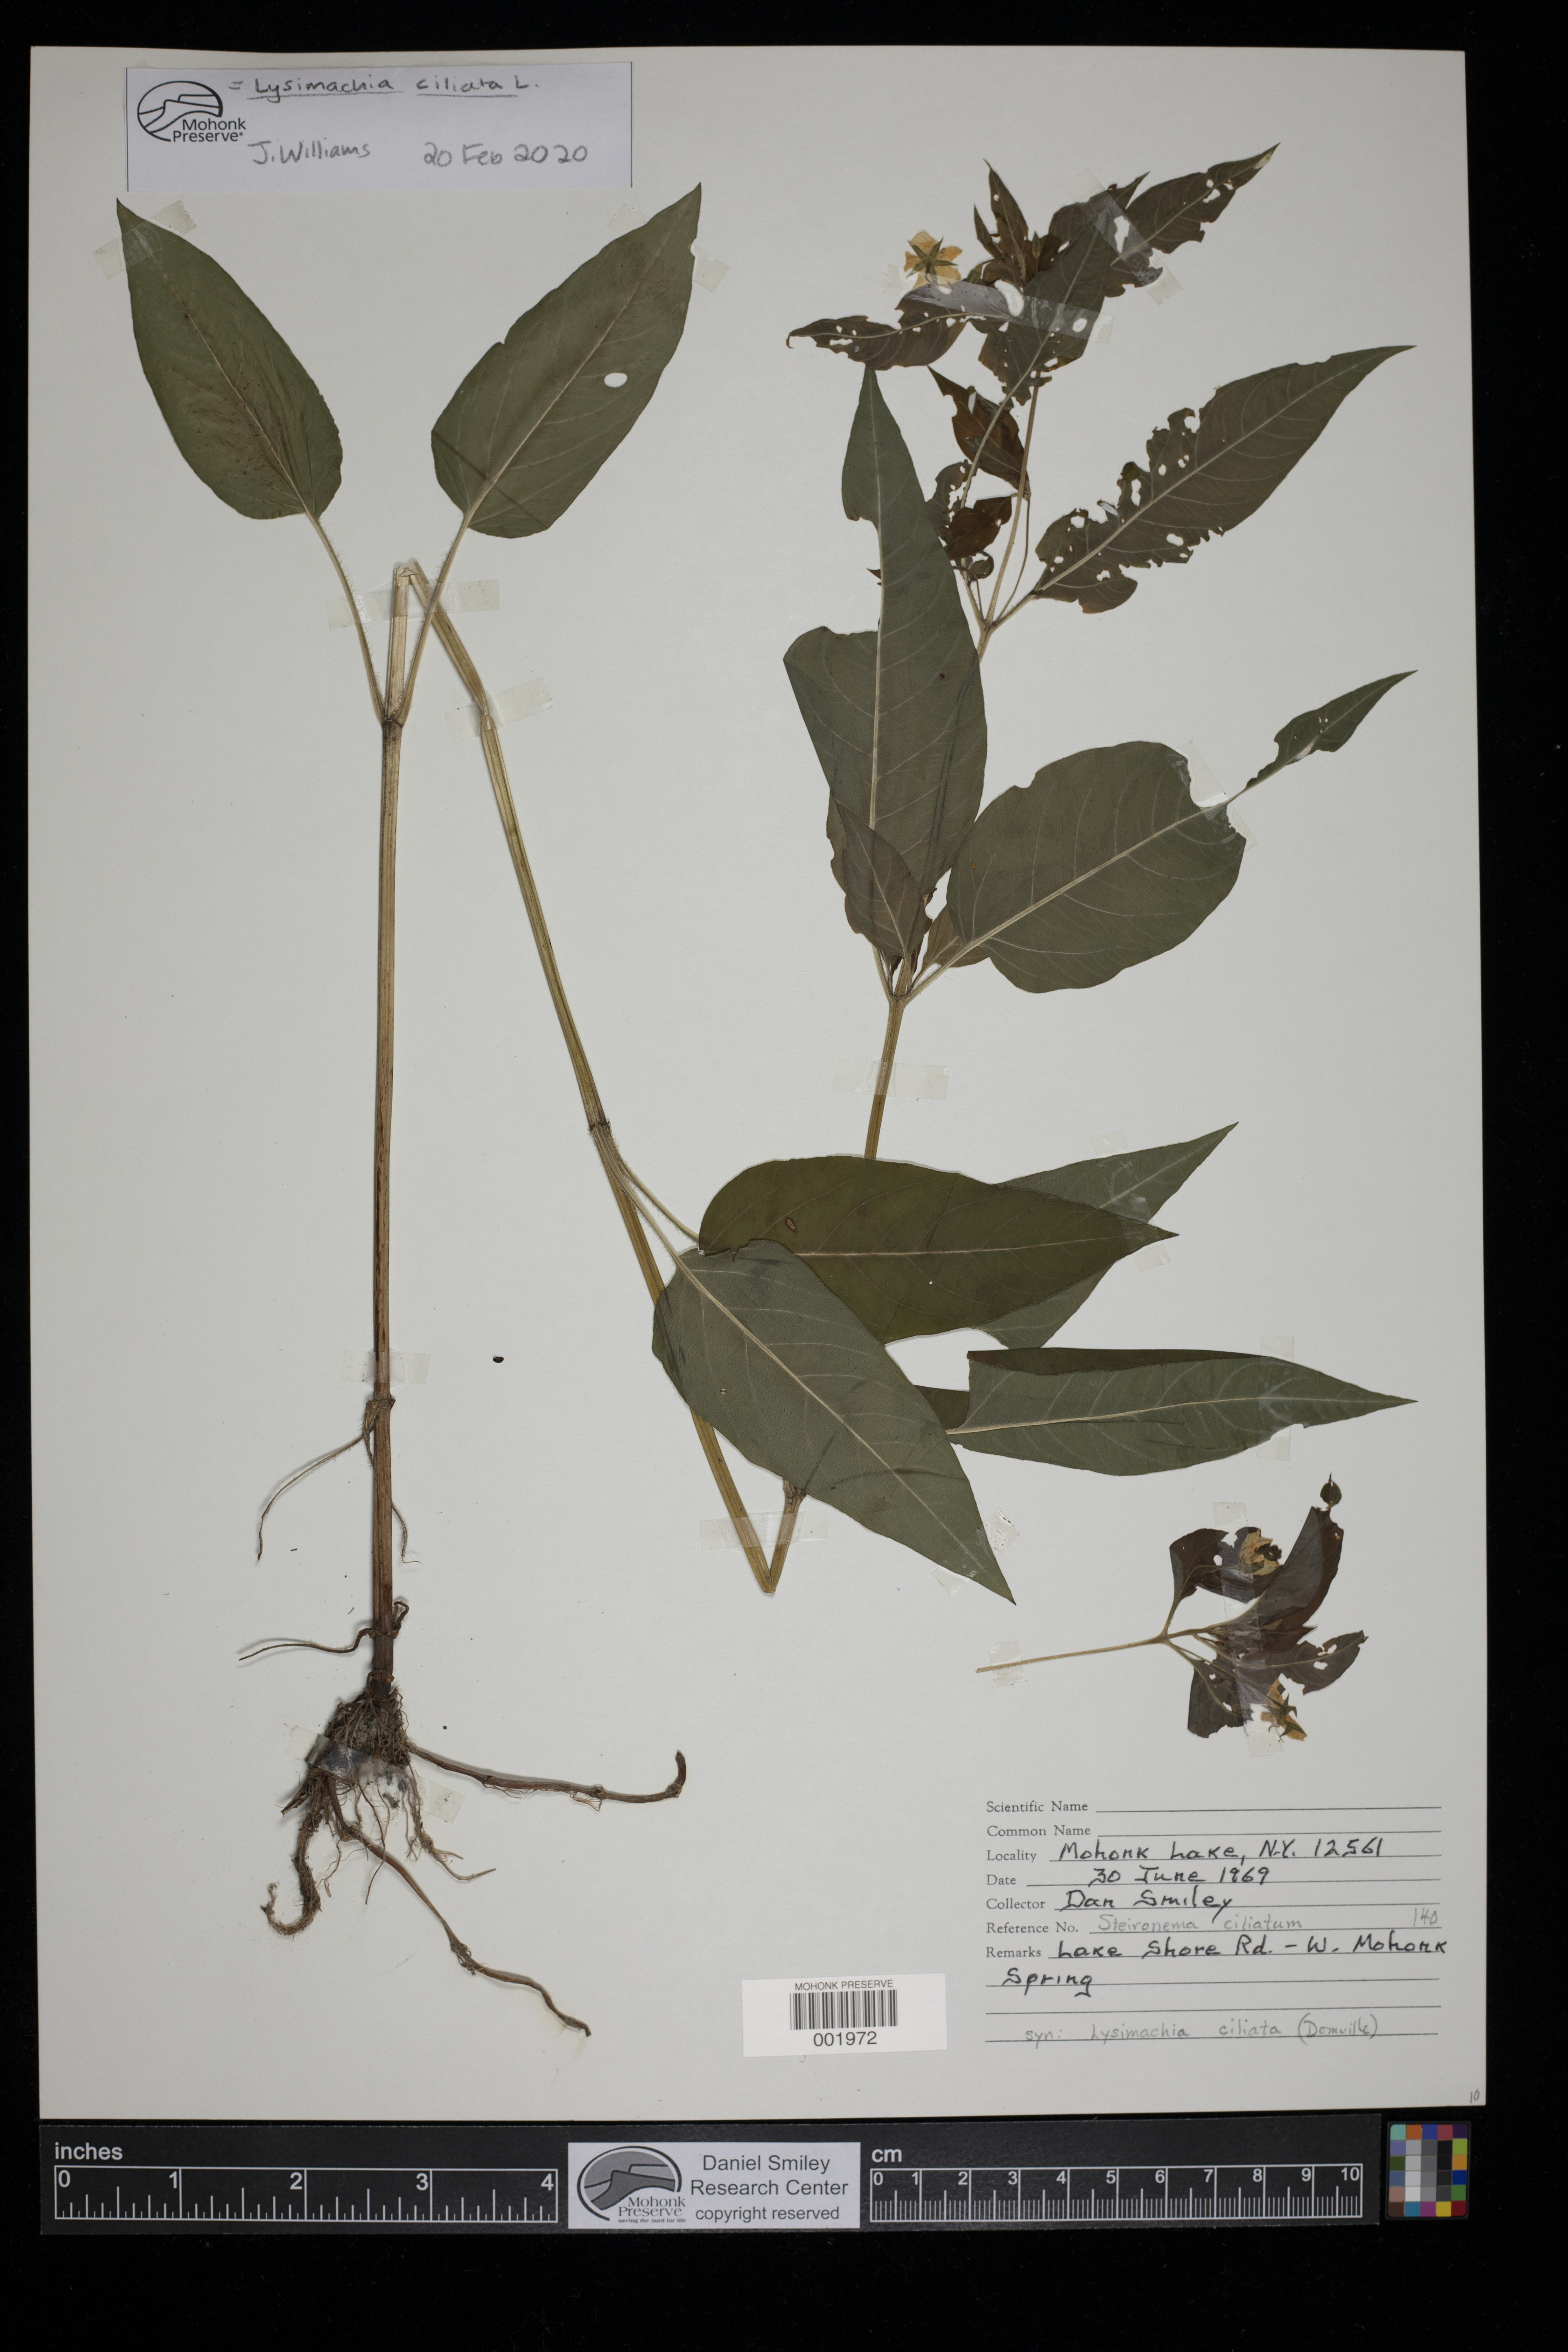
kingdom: Plantae
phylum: Tracheophyta
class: Magnoliopsida
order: Ericales
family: Primulaceae
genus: Lysimachia
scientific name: Lysimachia ciliata
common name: Fringed loosestrife
